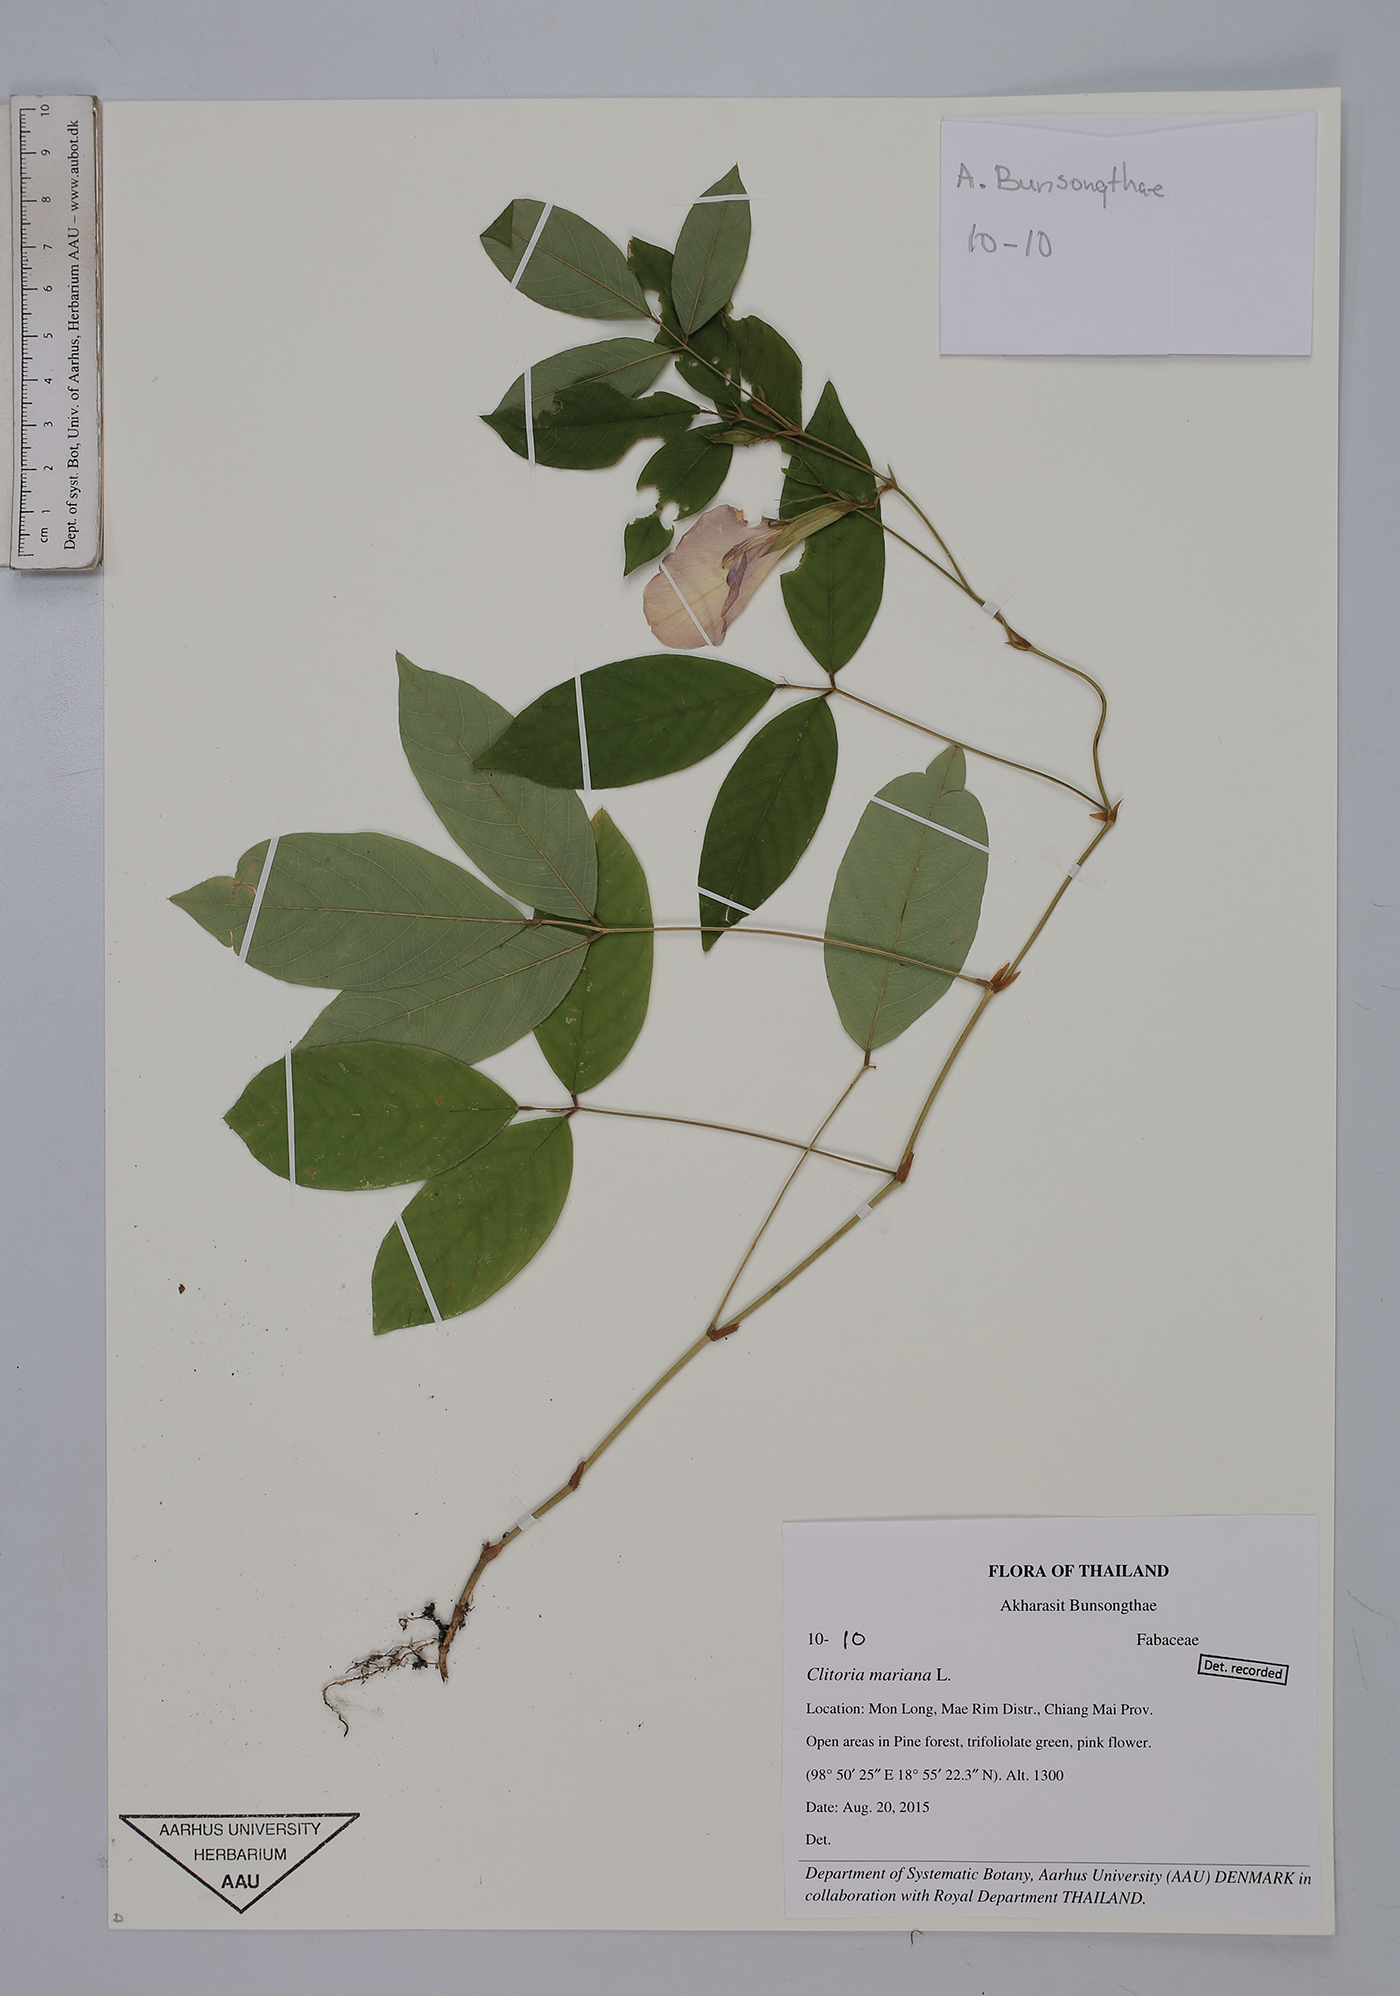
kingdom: Plantae
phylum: Tracheophyta
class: Magnoliopsida
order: Fabales
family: Fabaceae
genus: Clitoria
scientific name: Clitoria mariana
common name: Butterfly-pea
